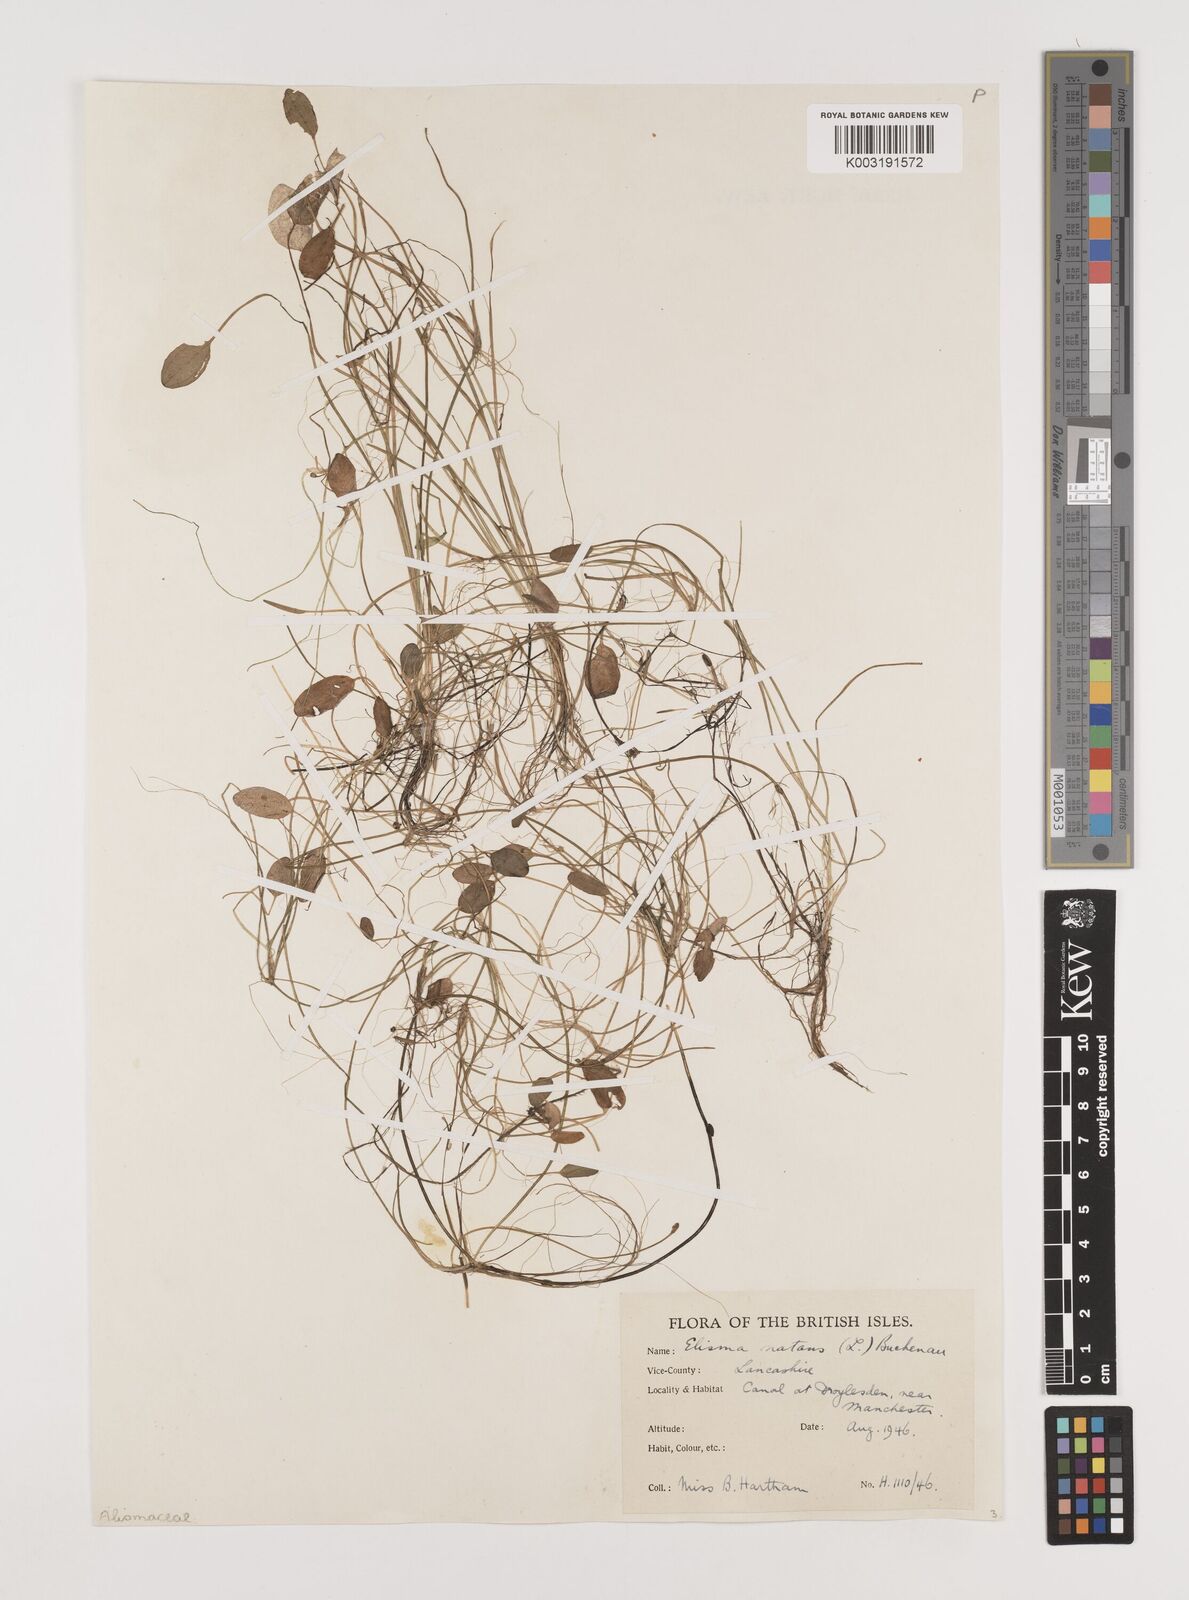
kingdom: Plantae
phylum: Tracheophyta
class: Liliopsida
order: Alismatales
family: Alismataceae
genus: Luronium
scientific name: Luronium natans
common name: Floating water-plantain
